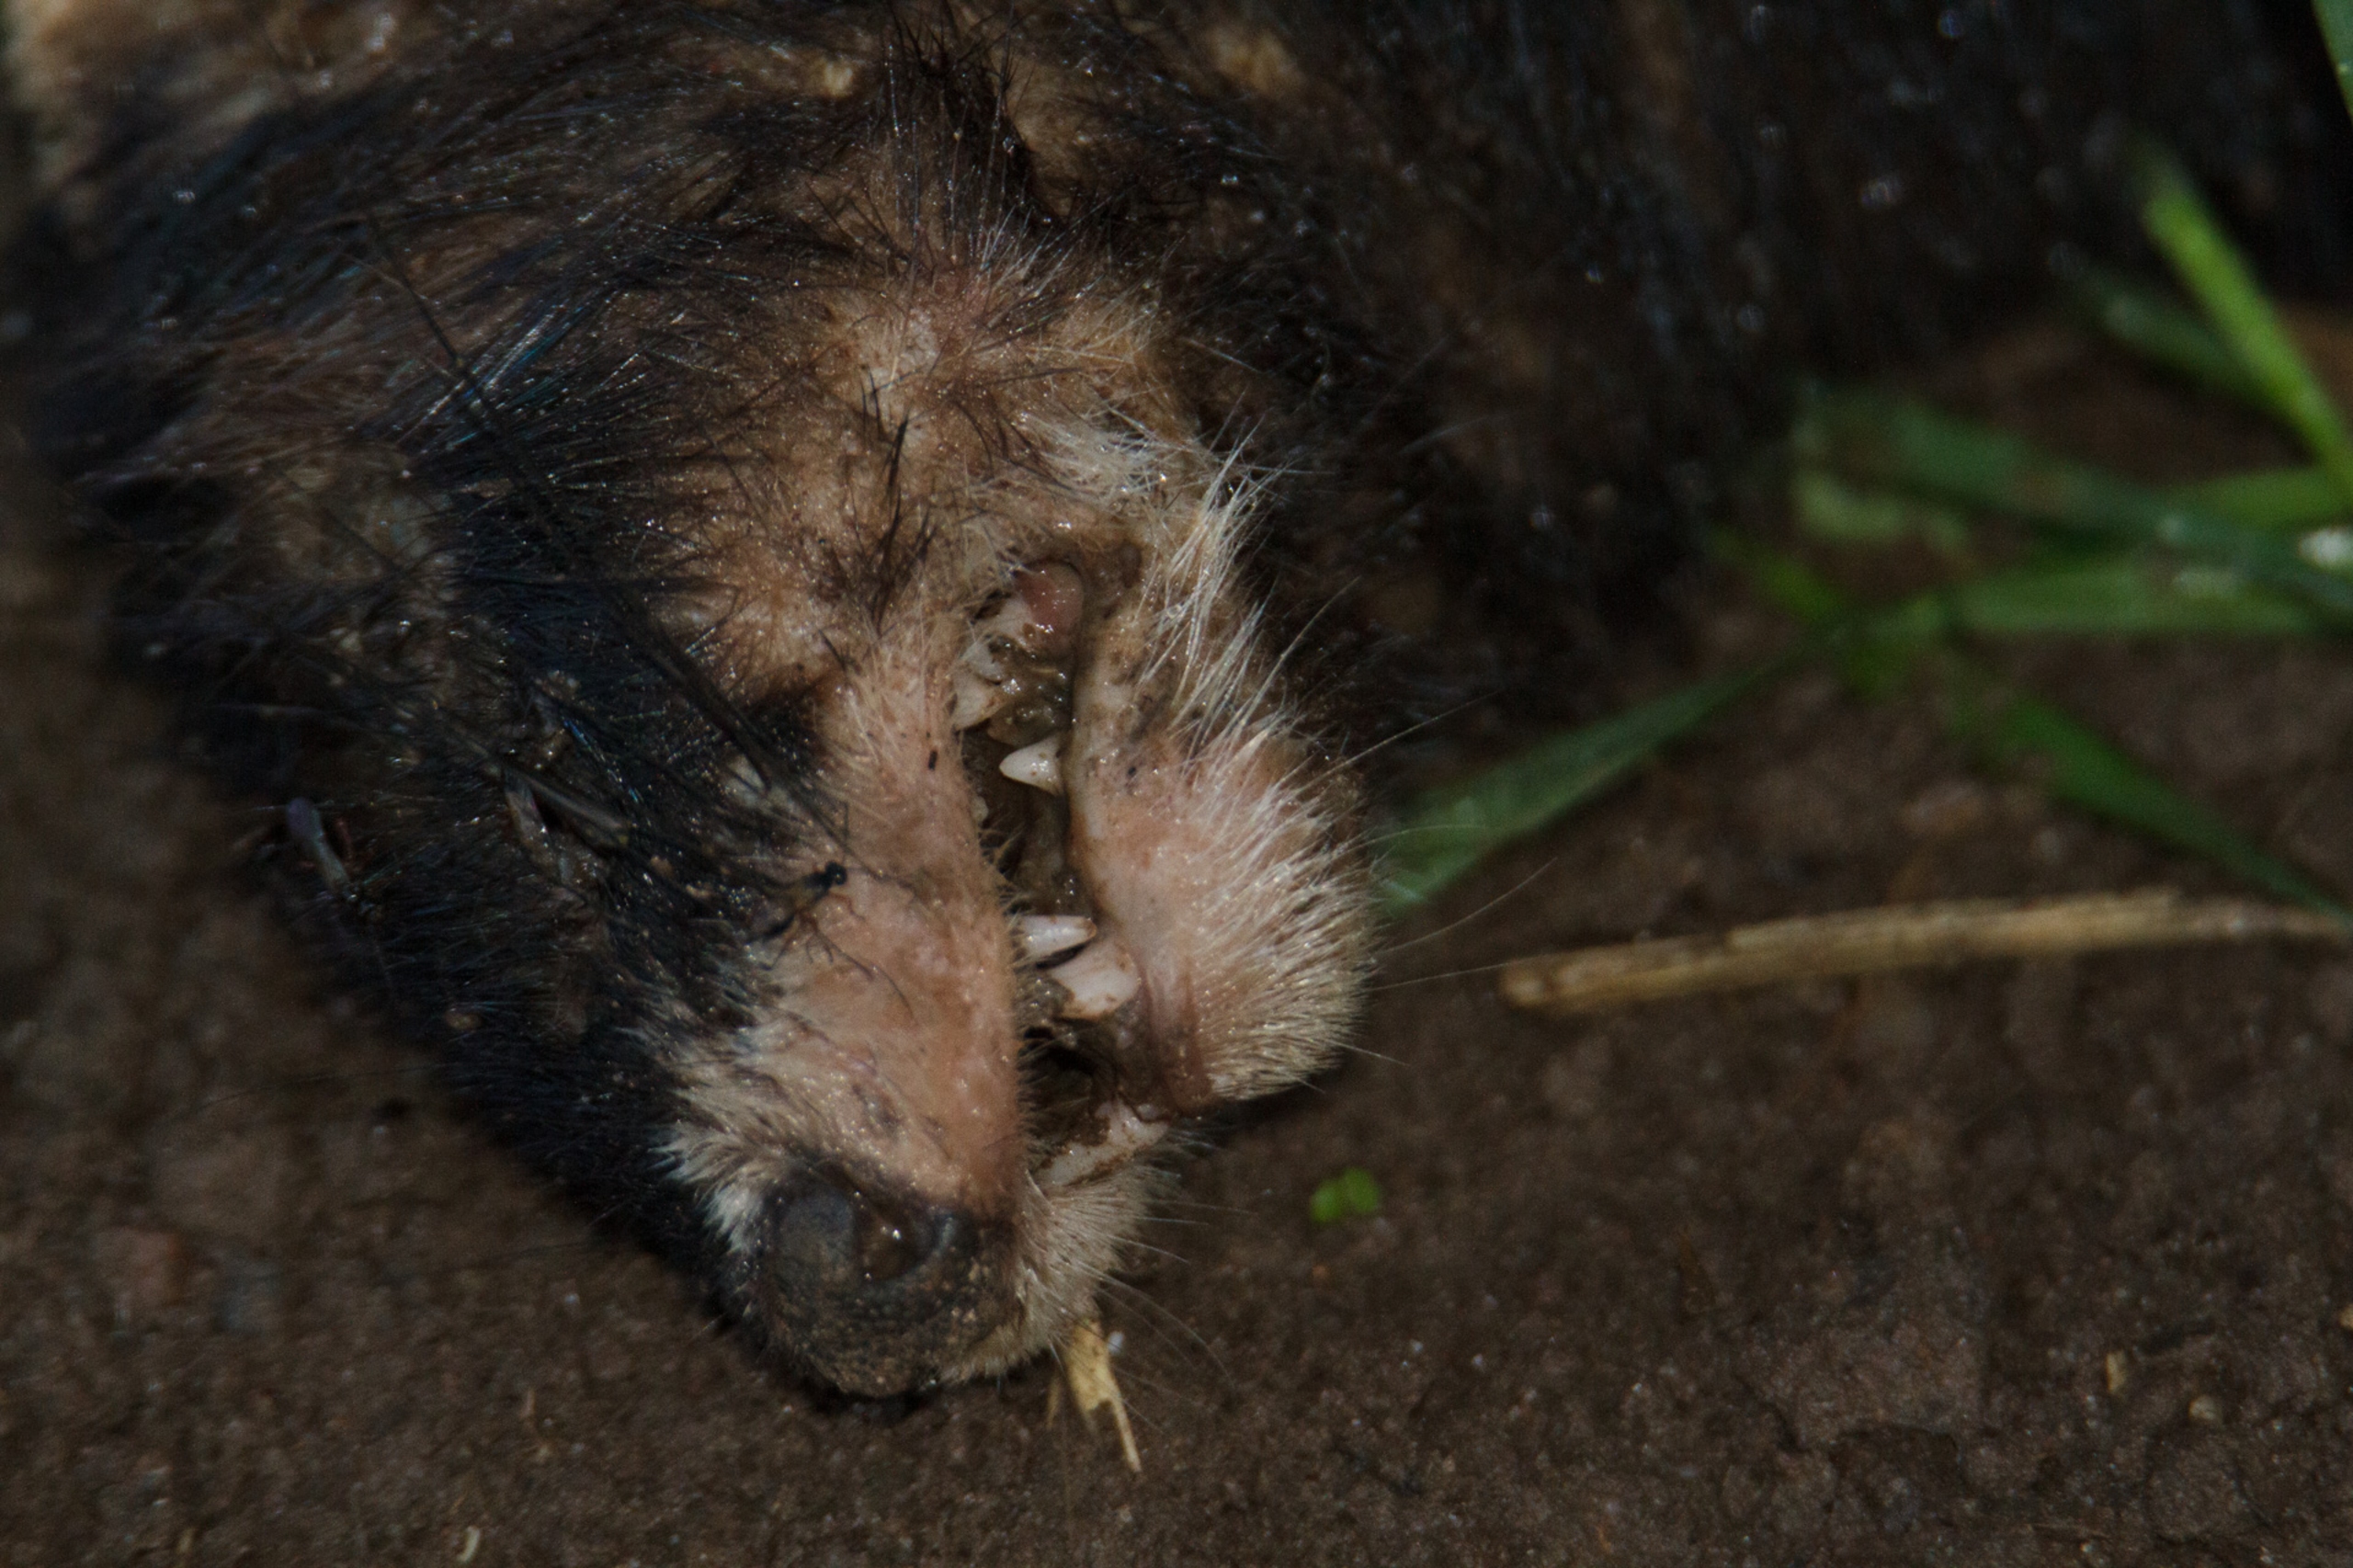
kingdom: Animalia
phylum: Chordata
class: Mammalia
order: Carnivora
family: Mustelidae
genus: Mustela
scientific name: Mustela putorius
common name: Ilder
